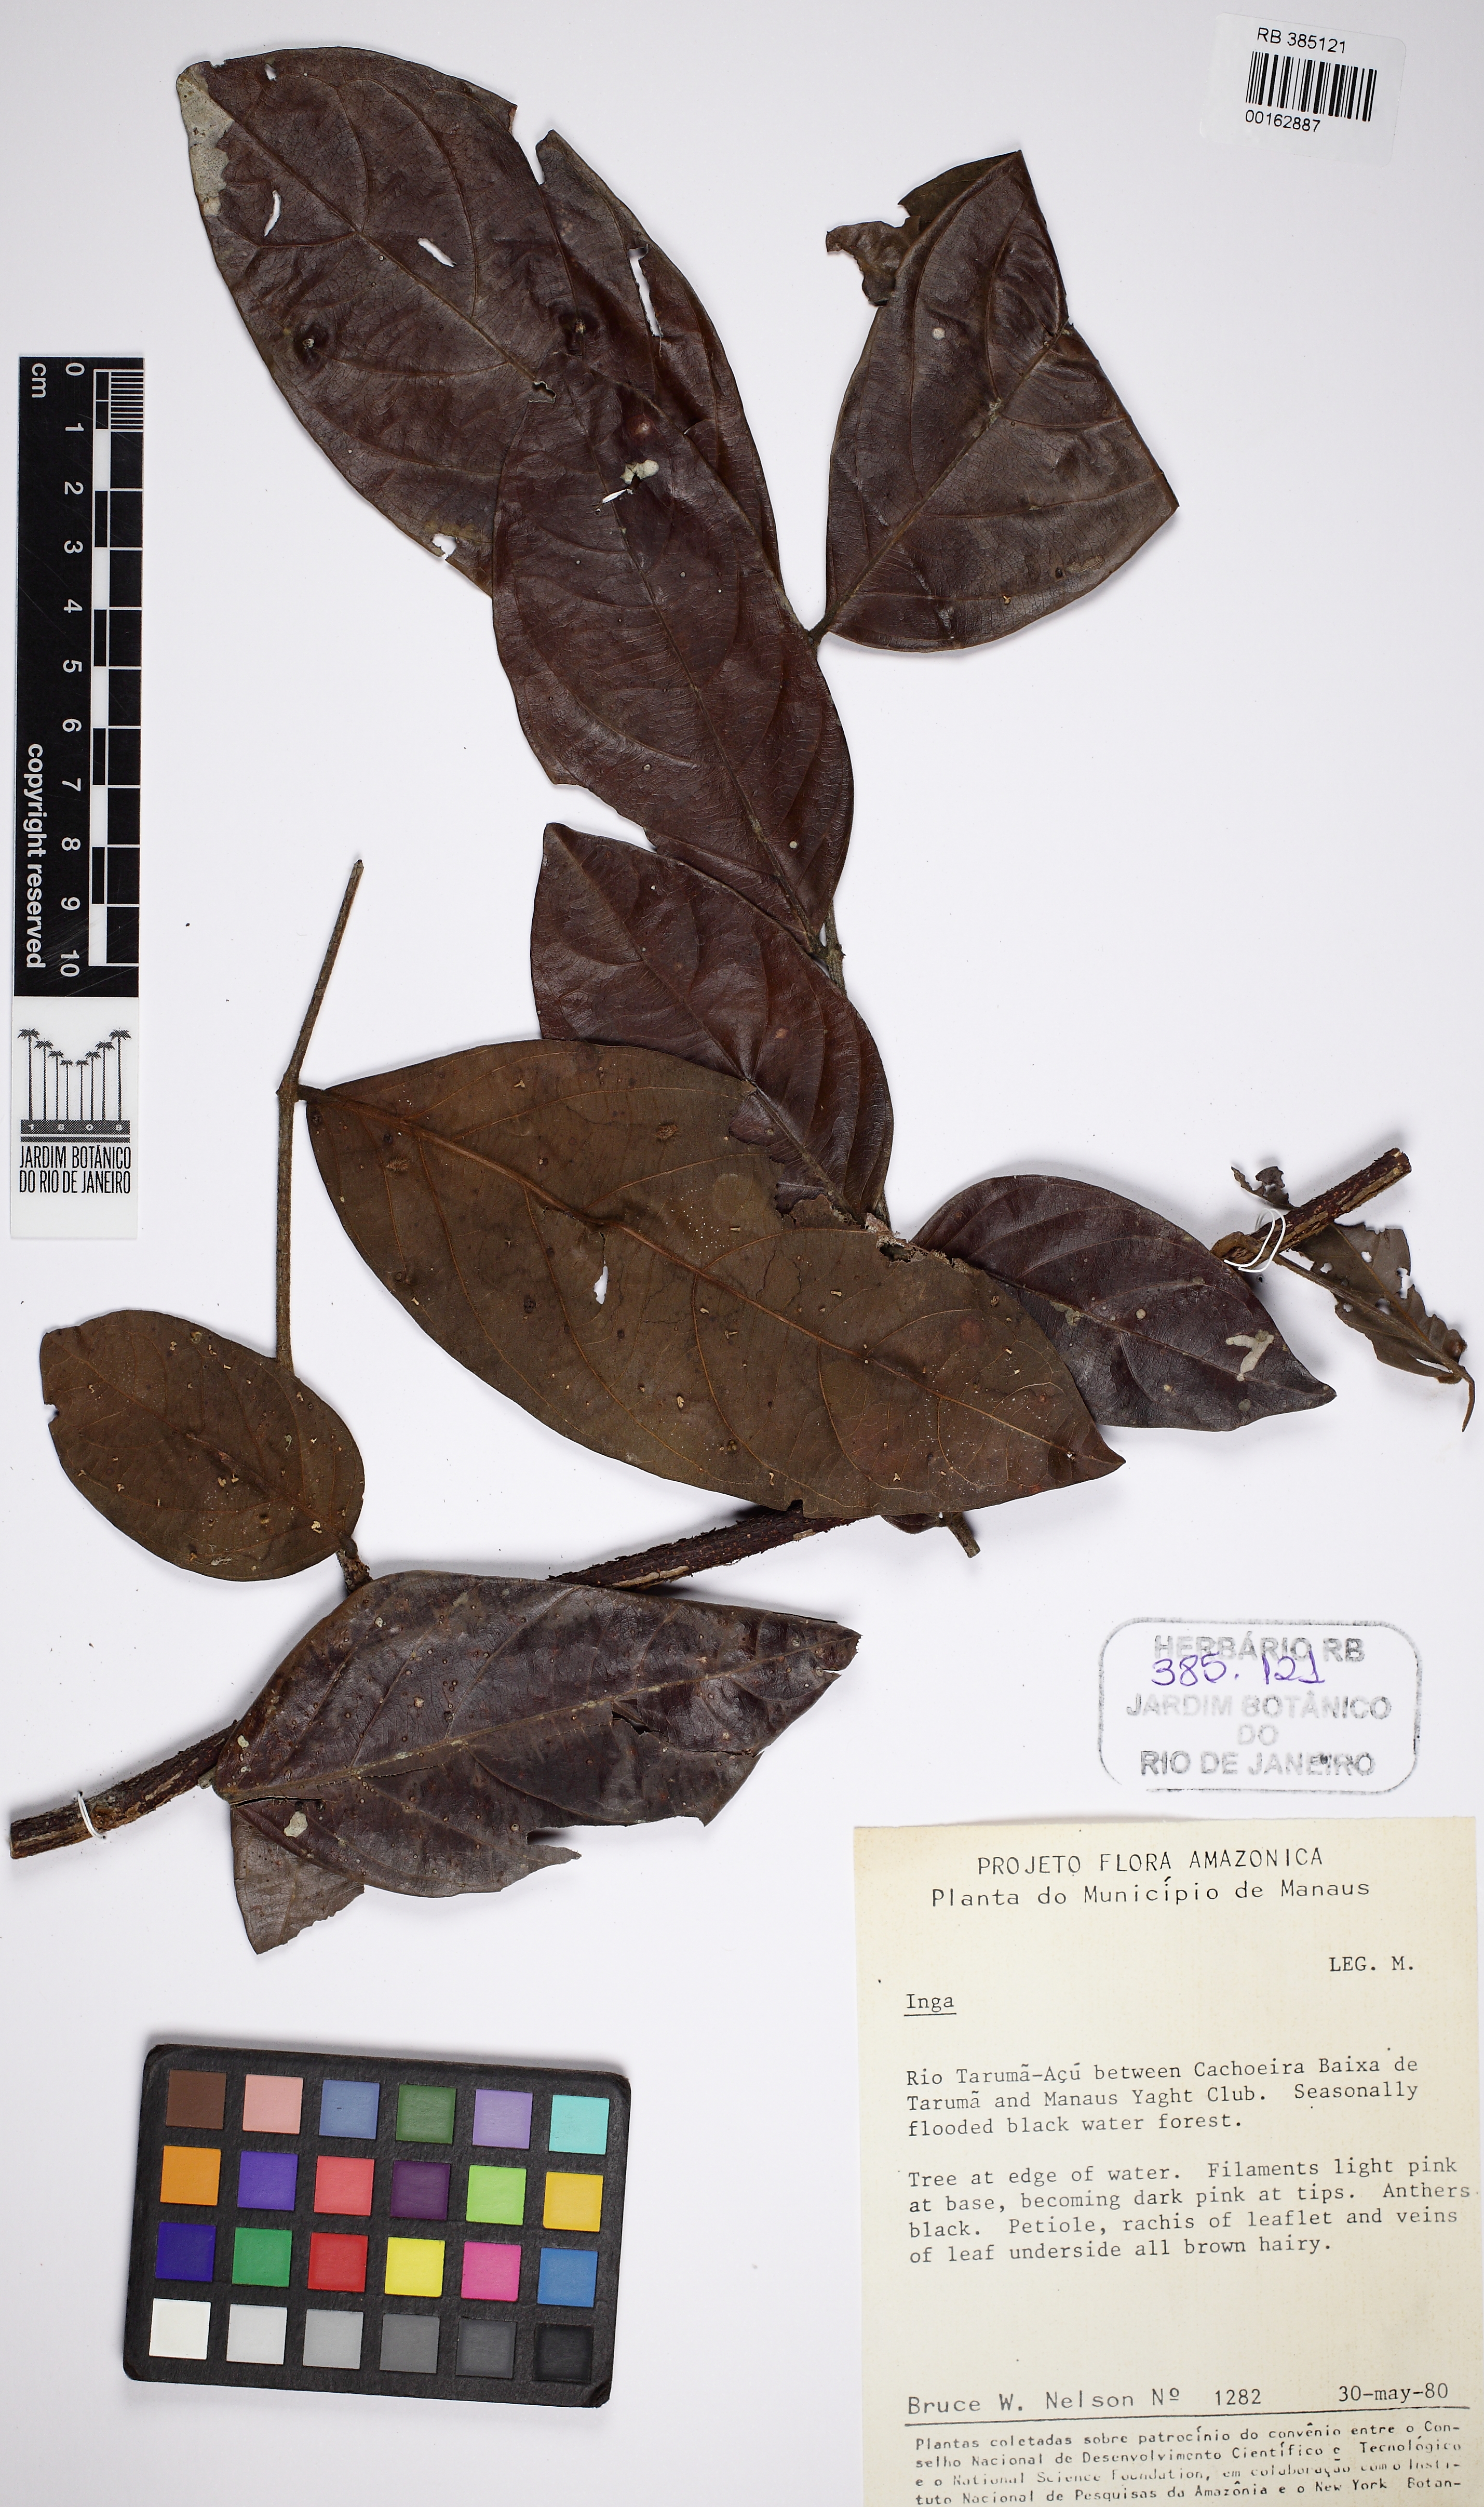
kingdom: Plantae
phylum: Tracheophyta
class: Magnoliopsida
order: Fabales
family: Fabaceae
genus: Inga
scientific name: Inga
